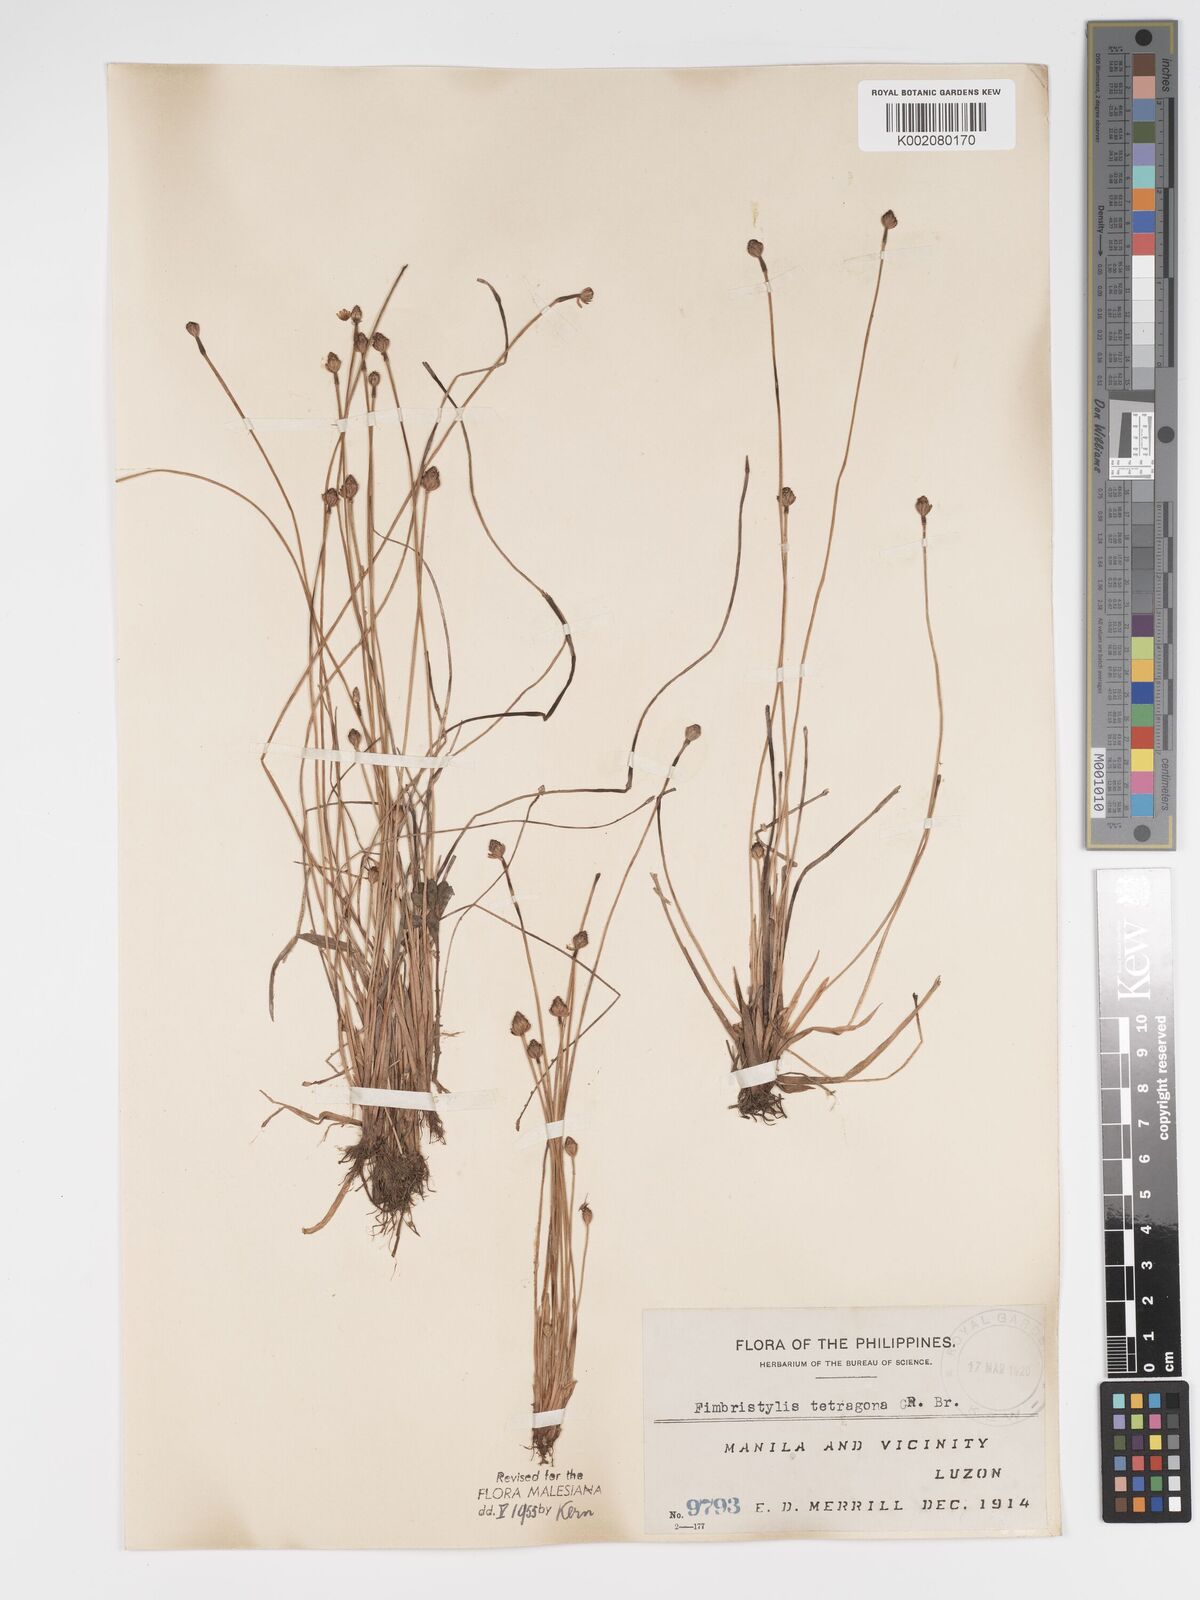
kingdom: Plantae
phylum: Tracheophyta
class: Liliopsida
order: Poales
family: Cyperaceae
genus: Fimbristylis
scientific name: Fimbristylis tetragona
